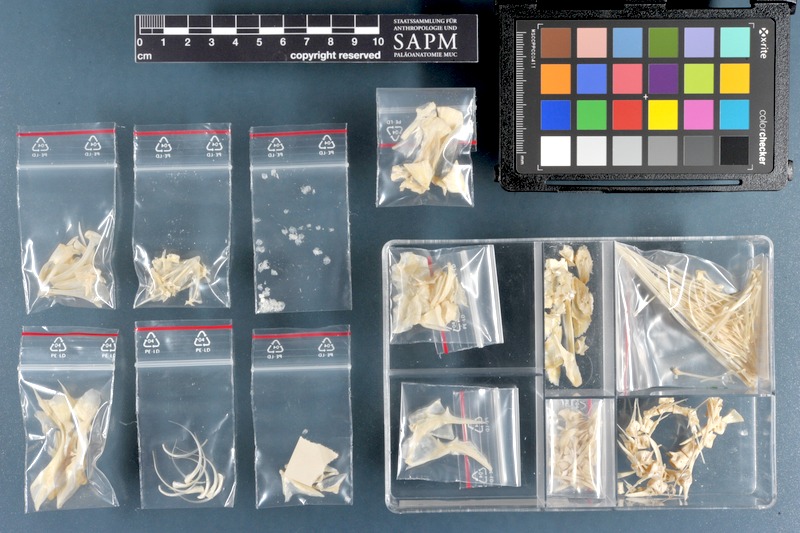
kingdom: Animalia
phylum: Chordata
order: Scorpaeniformes
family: Scorpaenidae
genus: Pterois
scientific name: Pterois volitans
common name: Lionfish
